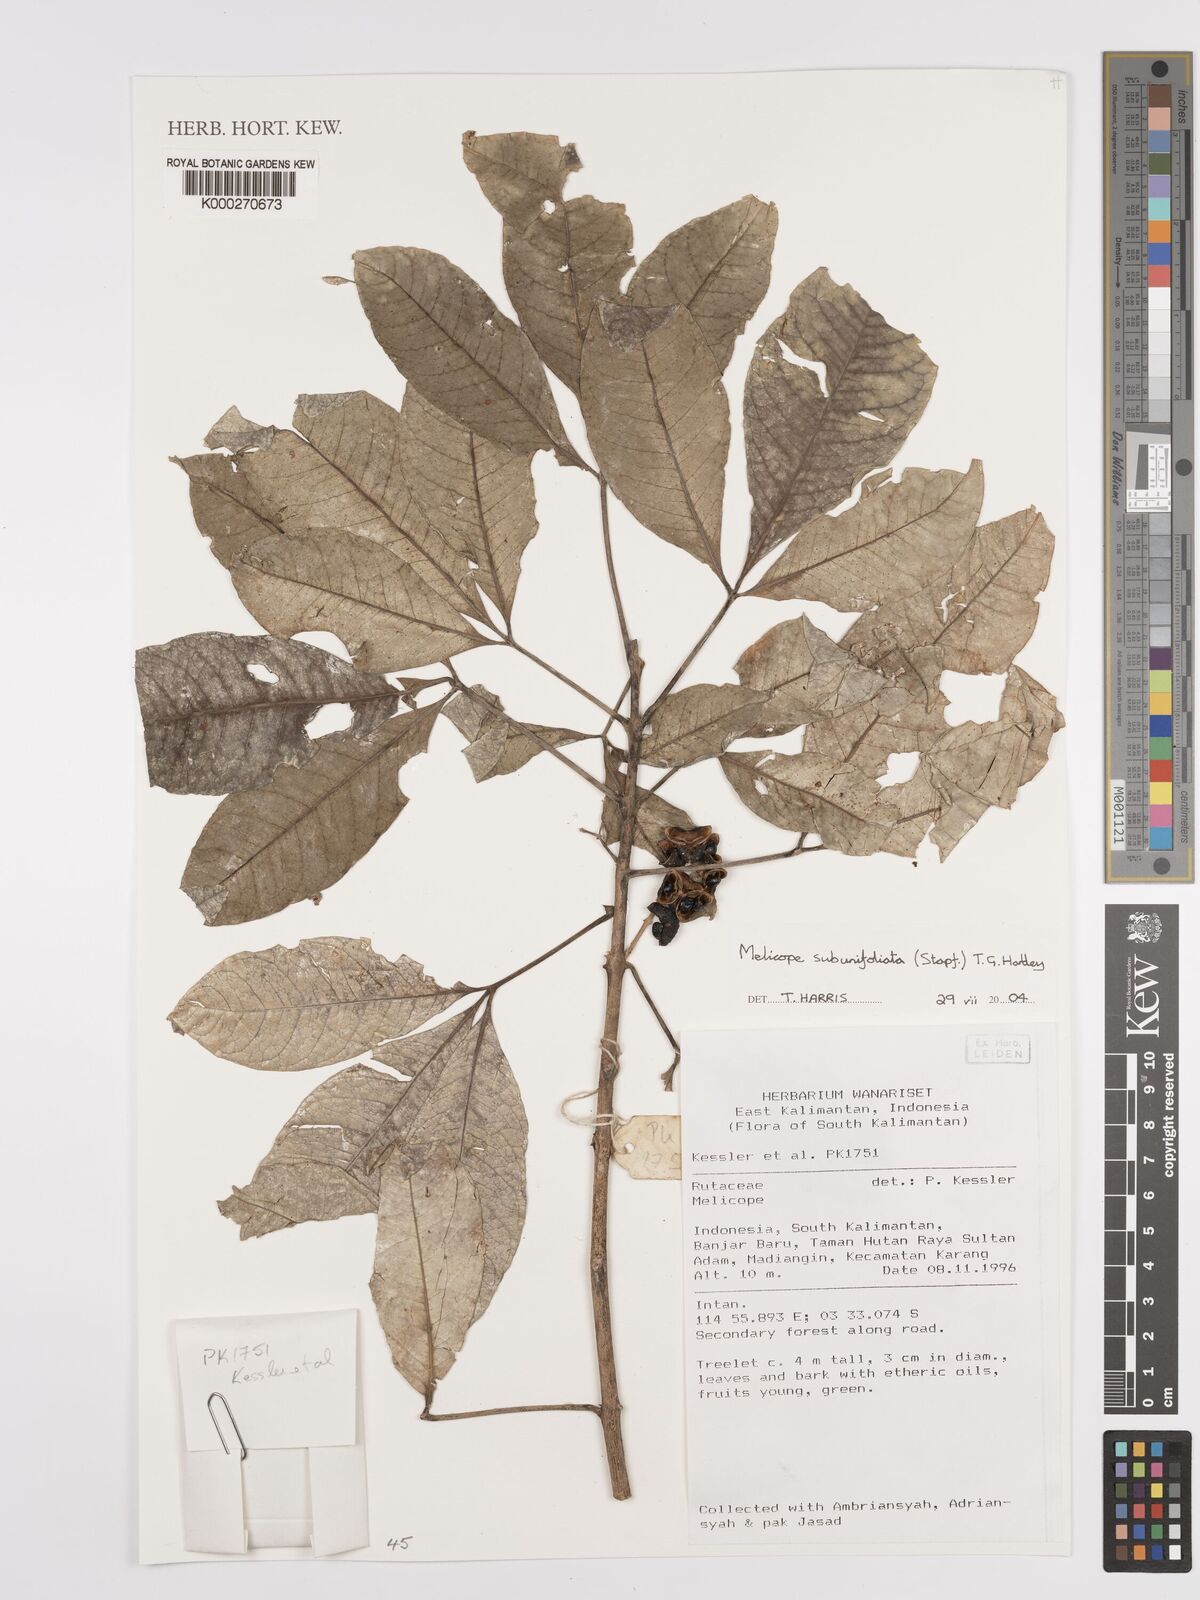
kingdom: Plantae
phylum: Tracheophyta
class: Magnoliopsida
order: Sapindales
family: Rutaceae
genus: Melicope
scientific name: Melicope
